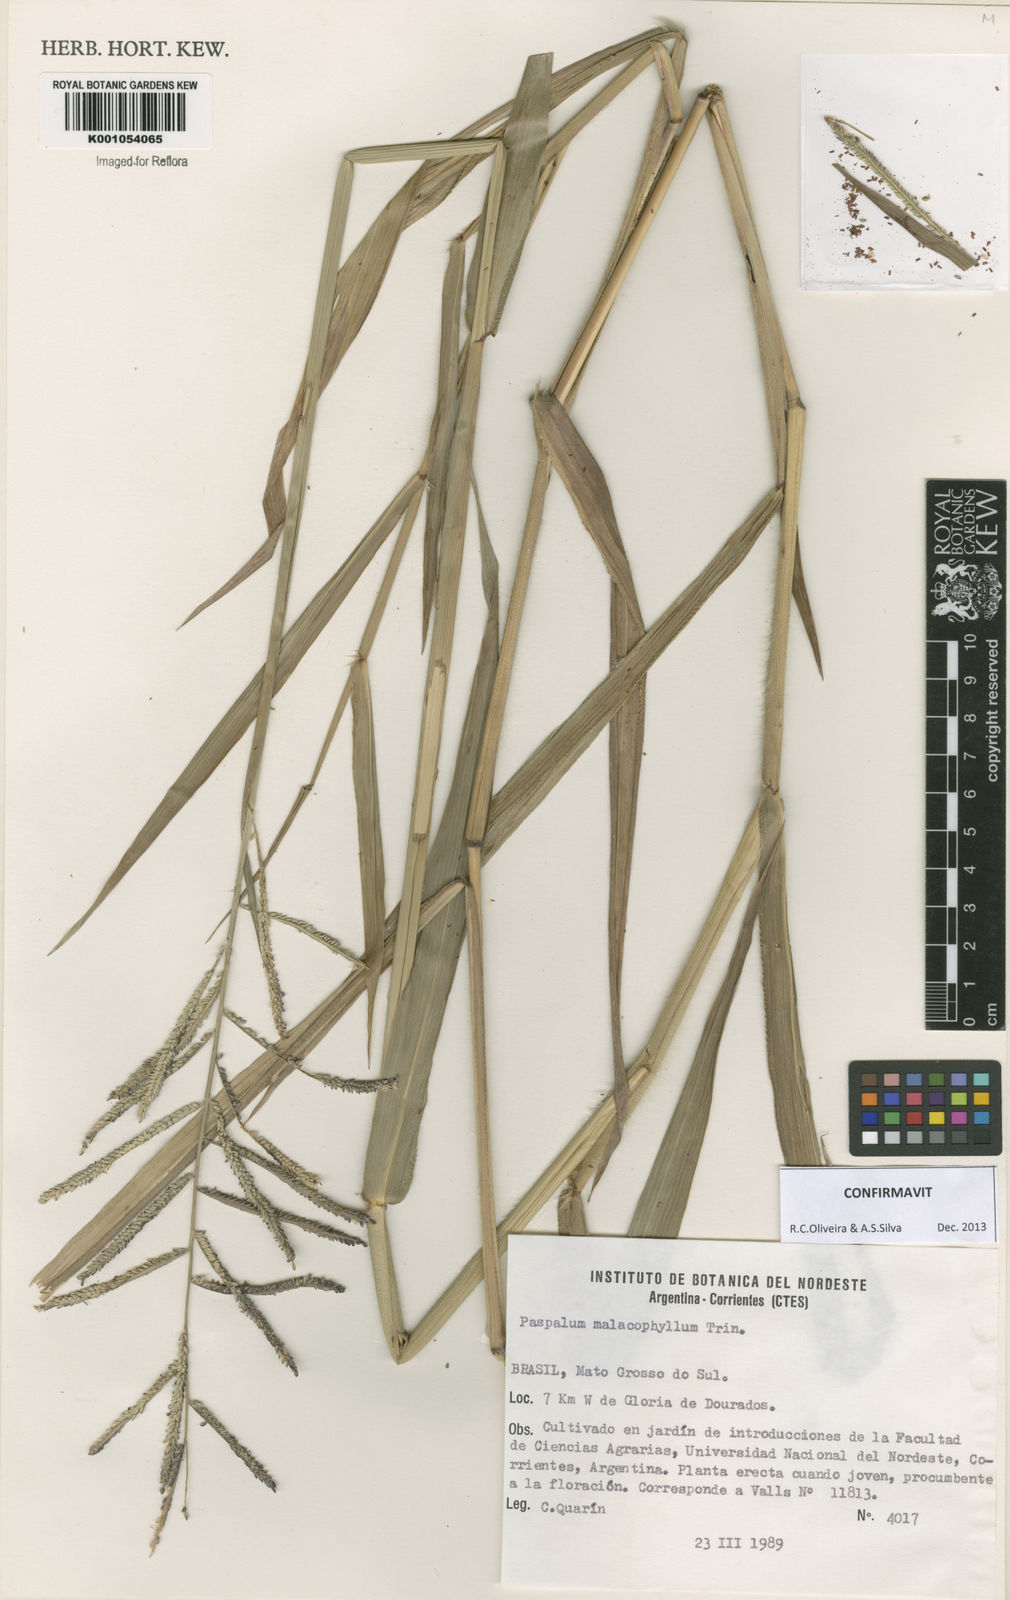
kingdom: Plantae
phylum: Tracheophyta
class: Liliopsida
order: Poales
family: Poaceae
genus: Paspalum
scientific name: Paspalum malacophyllum
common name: Ribbed paspalum
